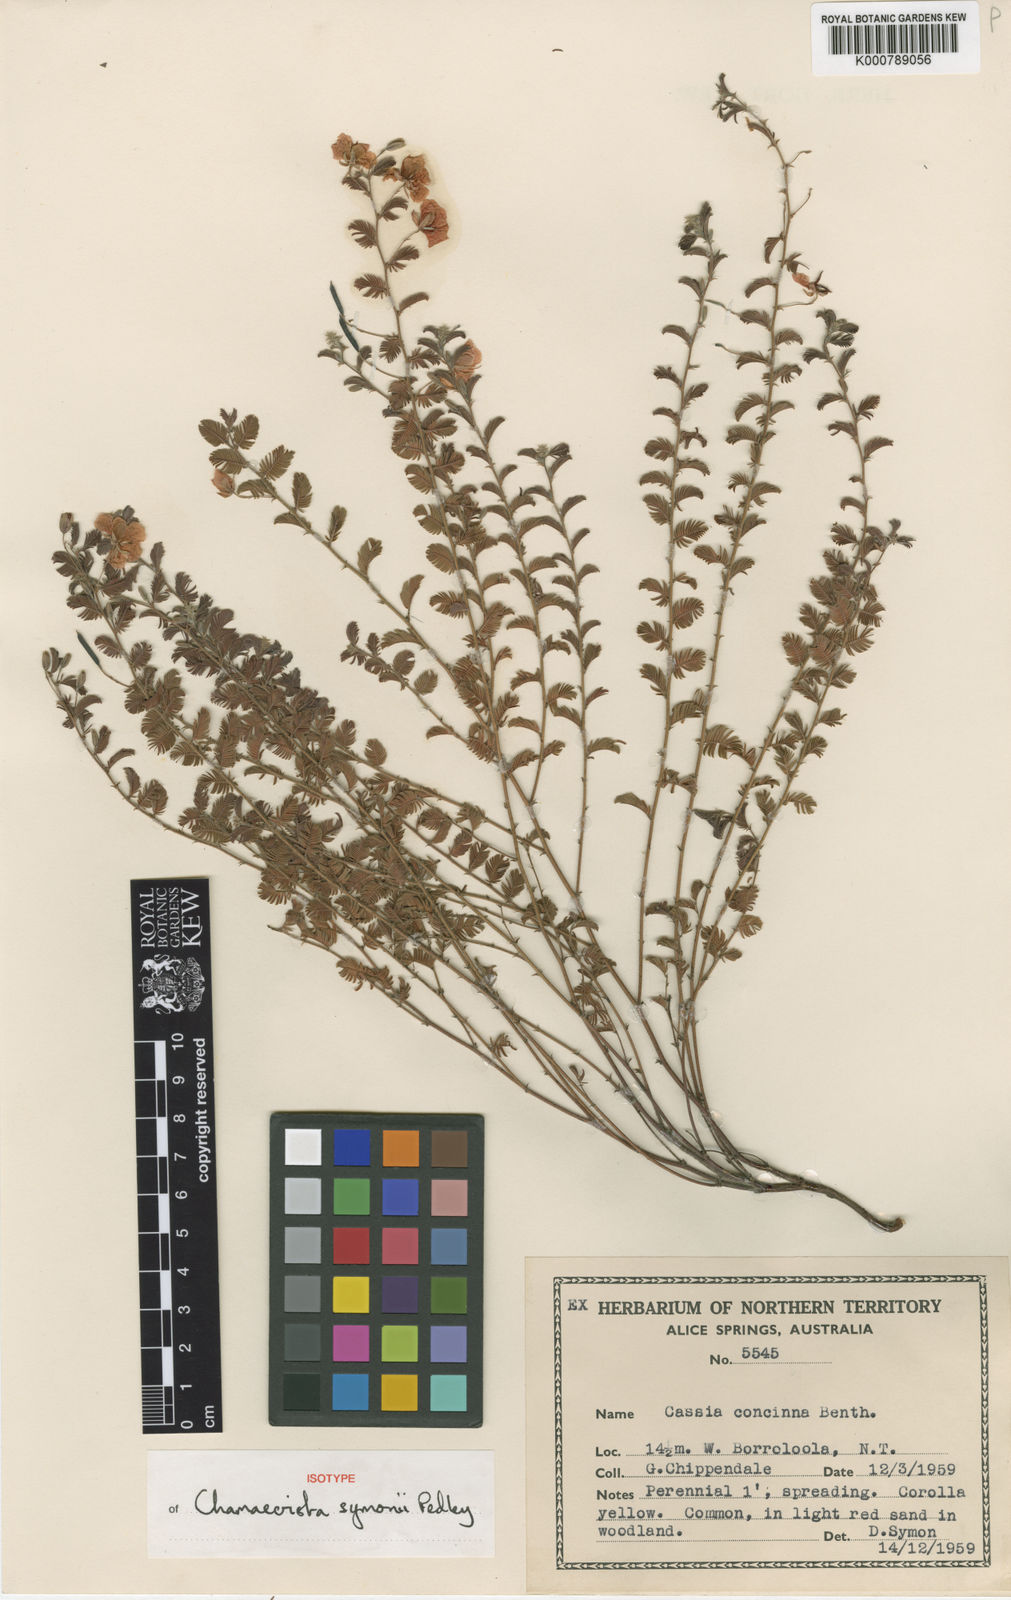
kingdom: Plantae
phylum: Tracheophyta
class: Magnoliopsida
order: Fabales
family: Fabaceae
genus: Chamaecrista
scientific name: Chamaecrista symonii
